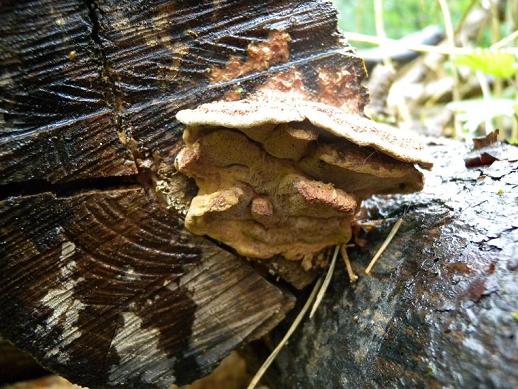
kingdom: Fungi
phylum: Basidiomycota
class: Agaricomycetes
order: Polyporales
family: Phanerochaetaceae
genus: Hapalopilus
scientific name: Hapalopilus rutilans
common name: rødlig okkerporesvamp
